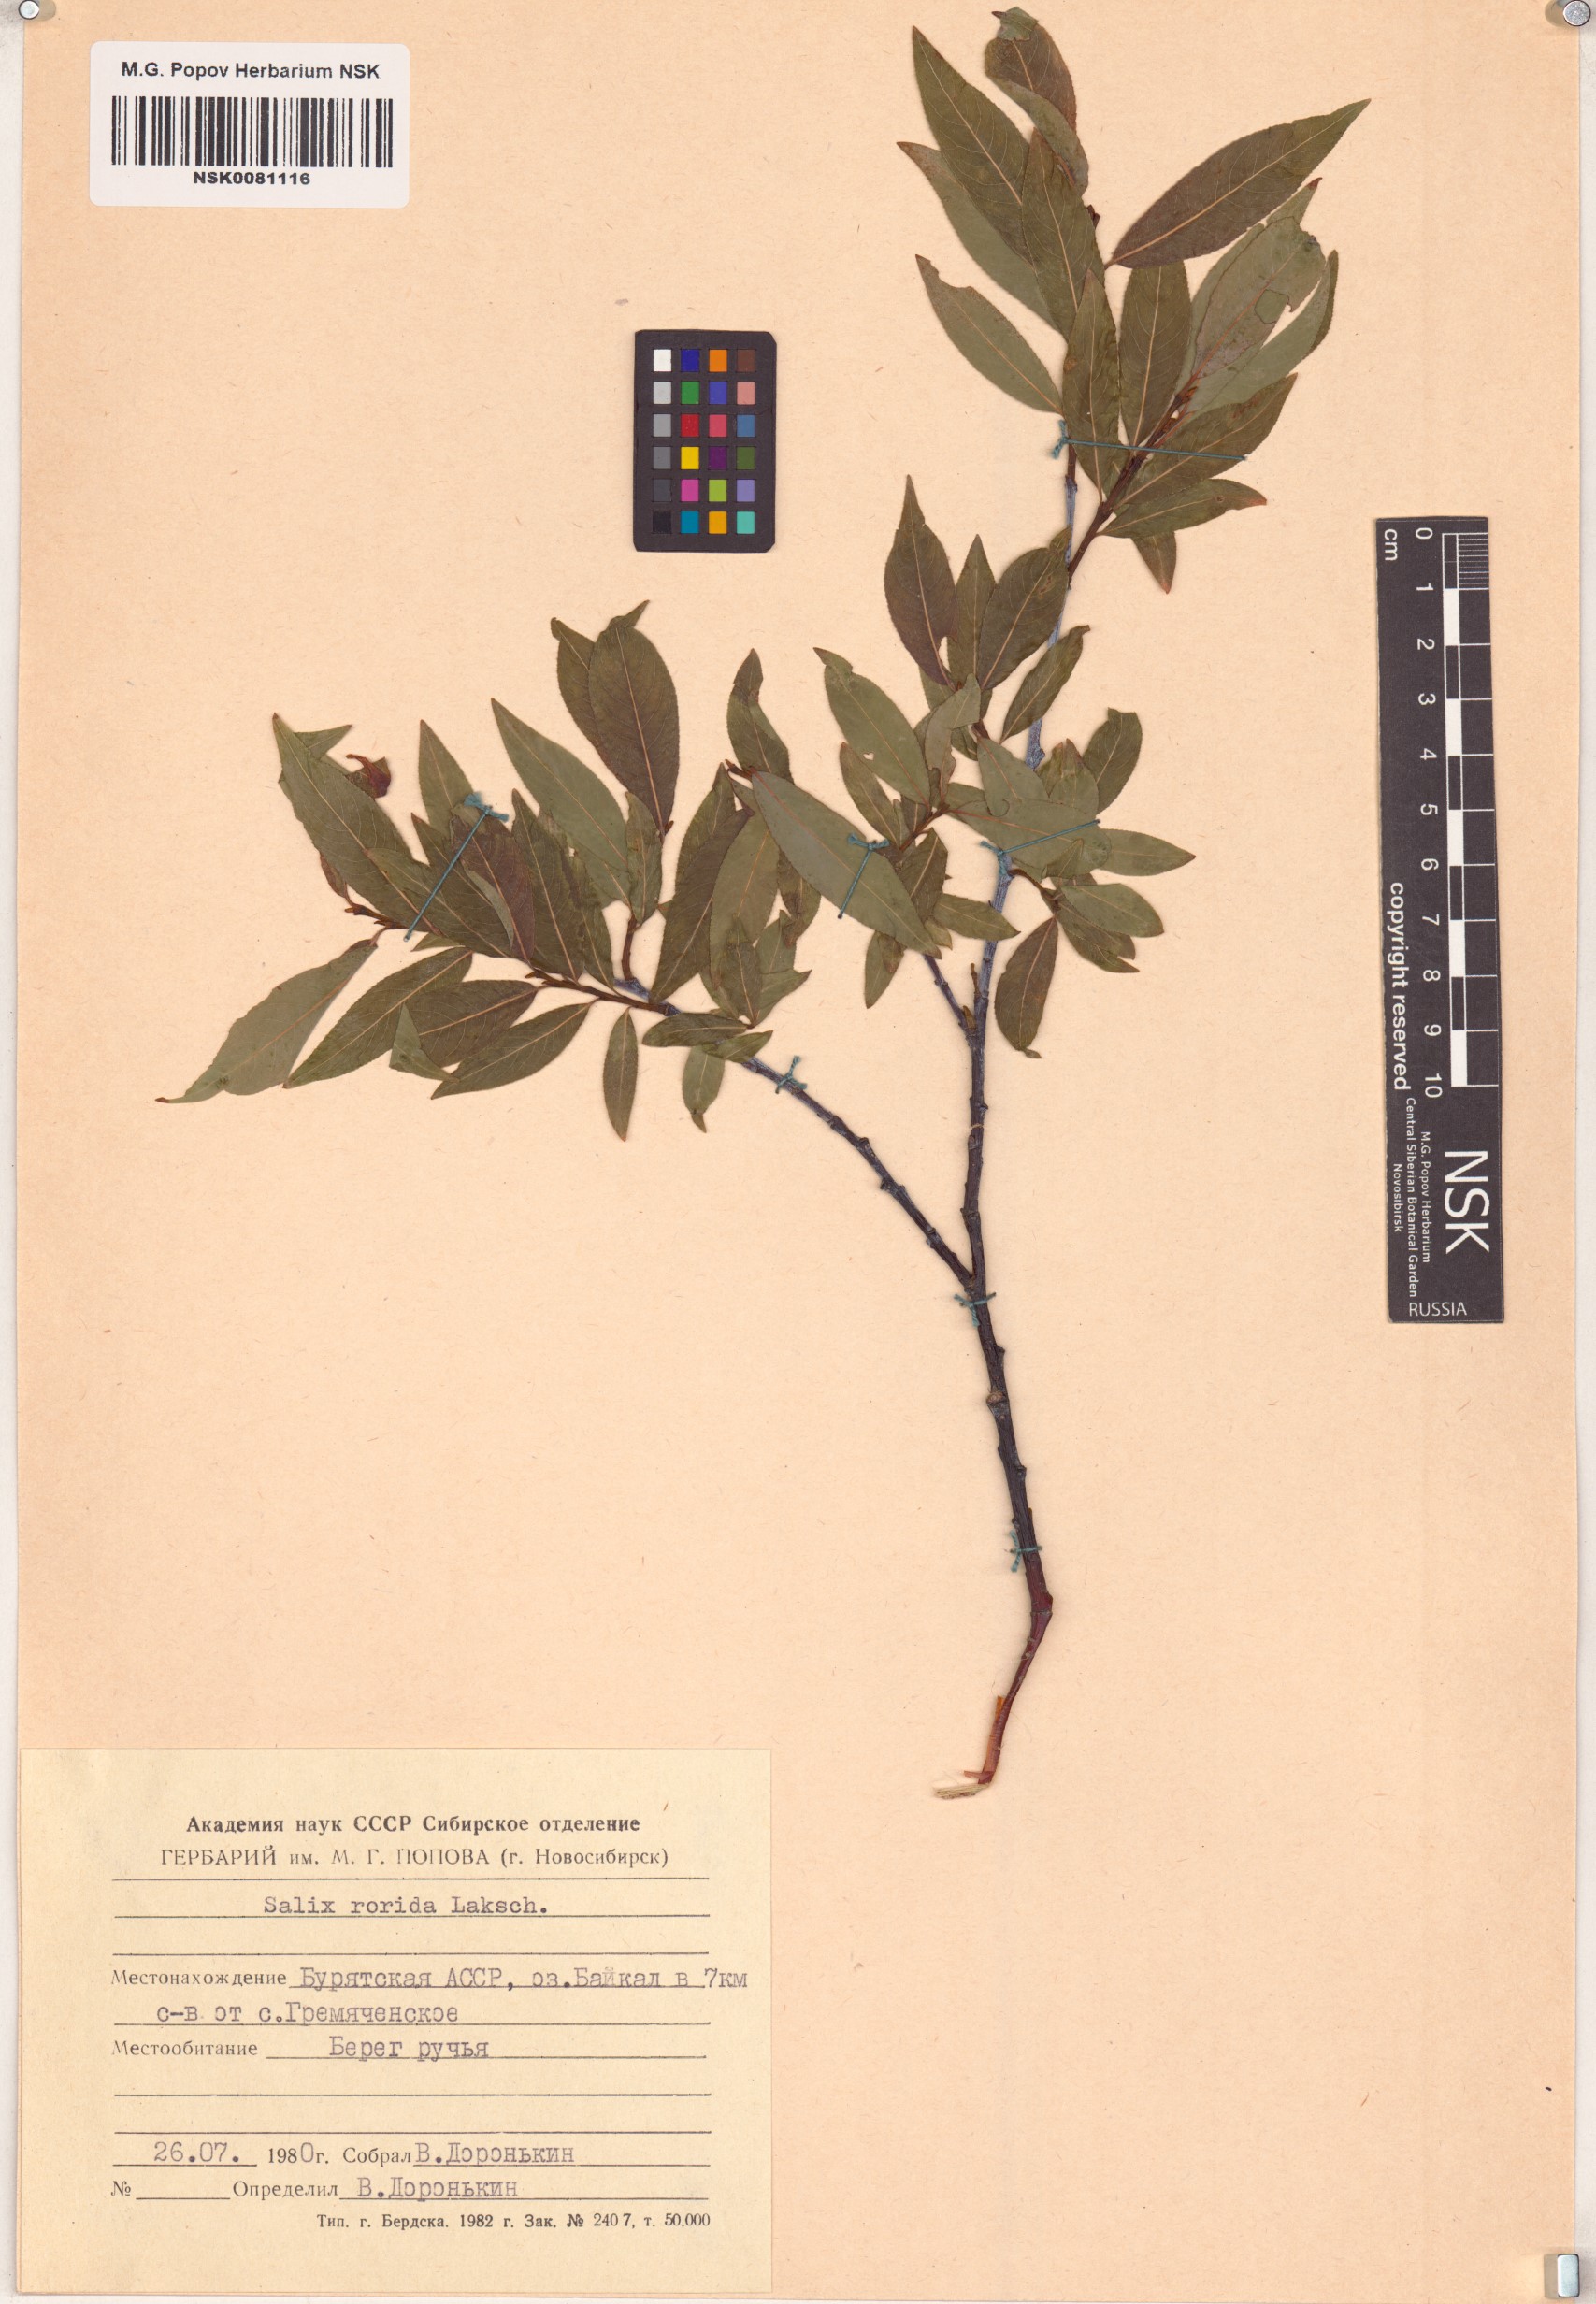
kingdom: Plantae
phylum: Tracheophyta
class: Magnoliopsida
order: Malpighiales
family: Salicaceae
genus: Salix
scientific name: Salix rorida
